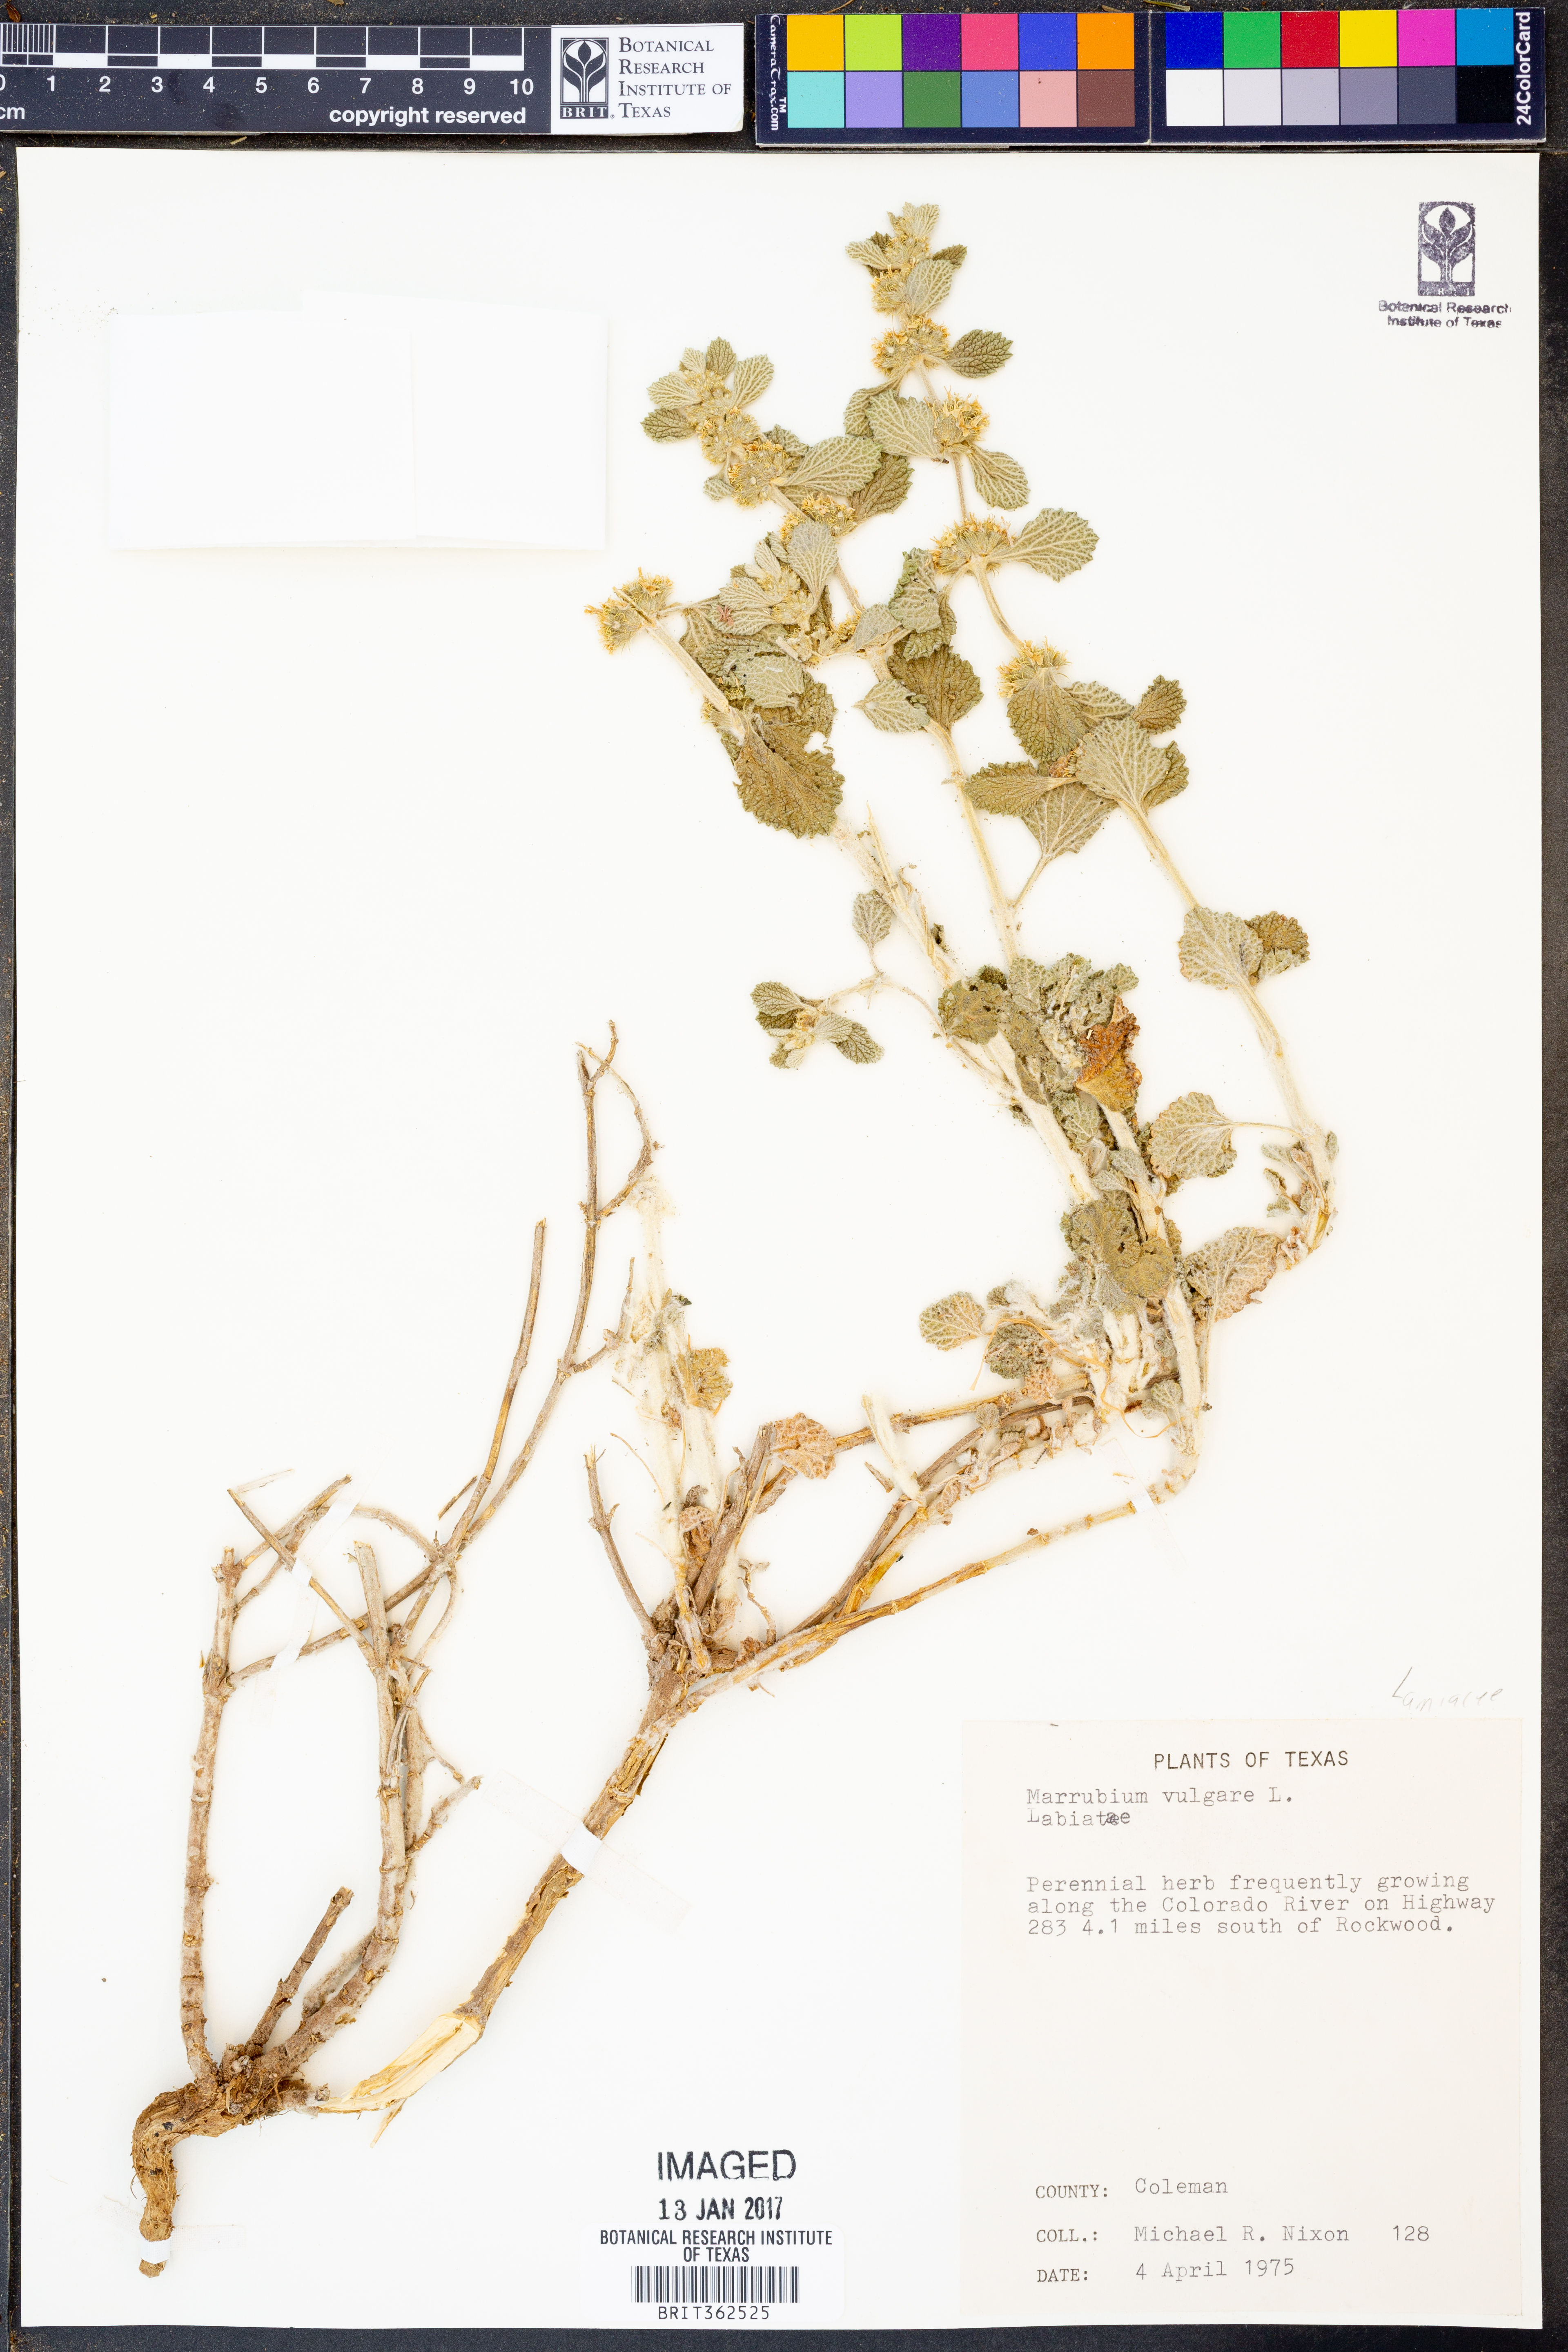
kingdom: Plantae
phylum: Tracheophyta
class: Magnoliopsida
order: Lamiales
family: Lamiaceae
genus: Marrubium
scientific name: Marrubium vulgare
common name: Horehound
